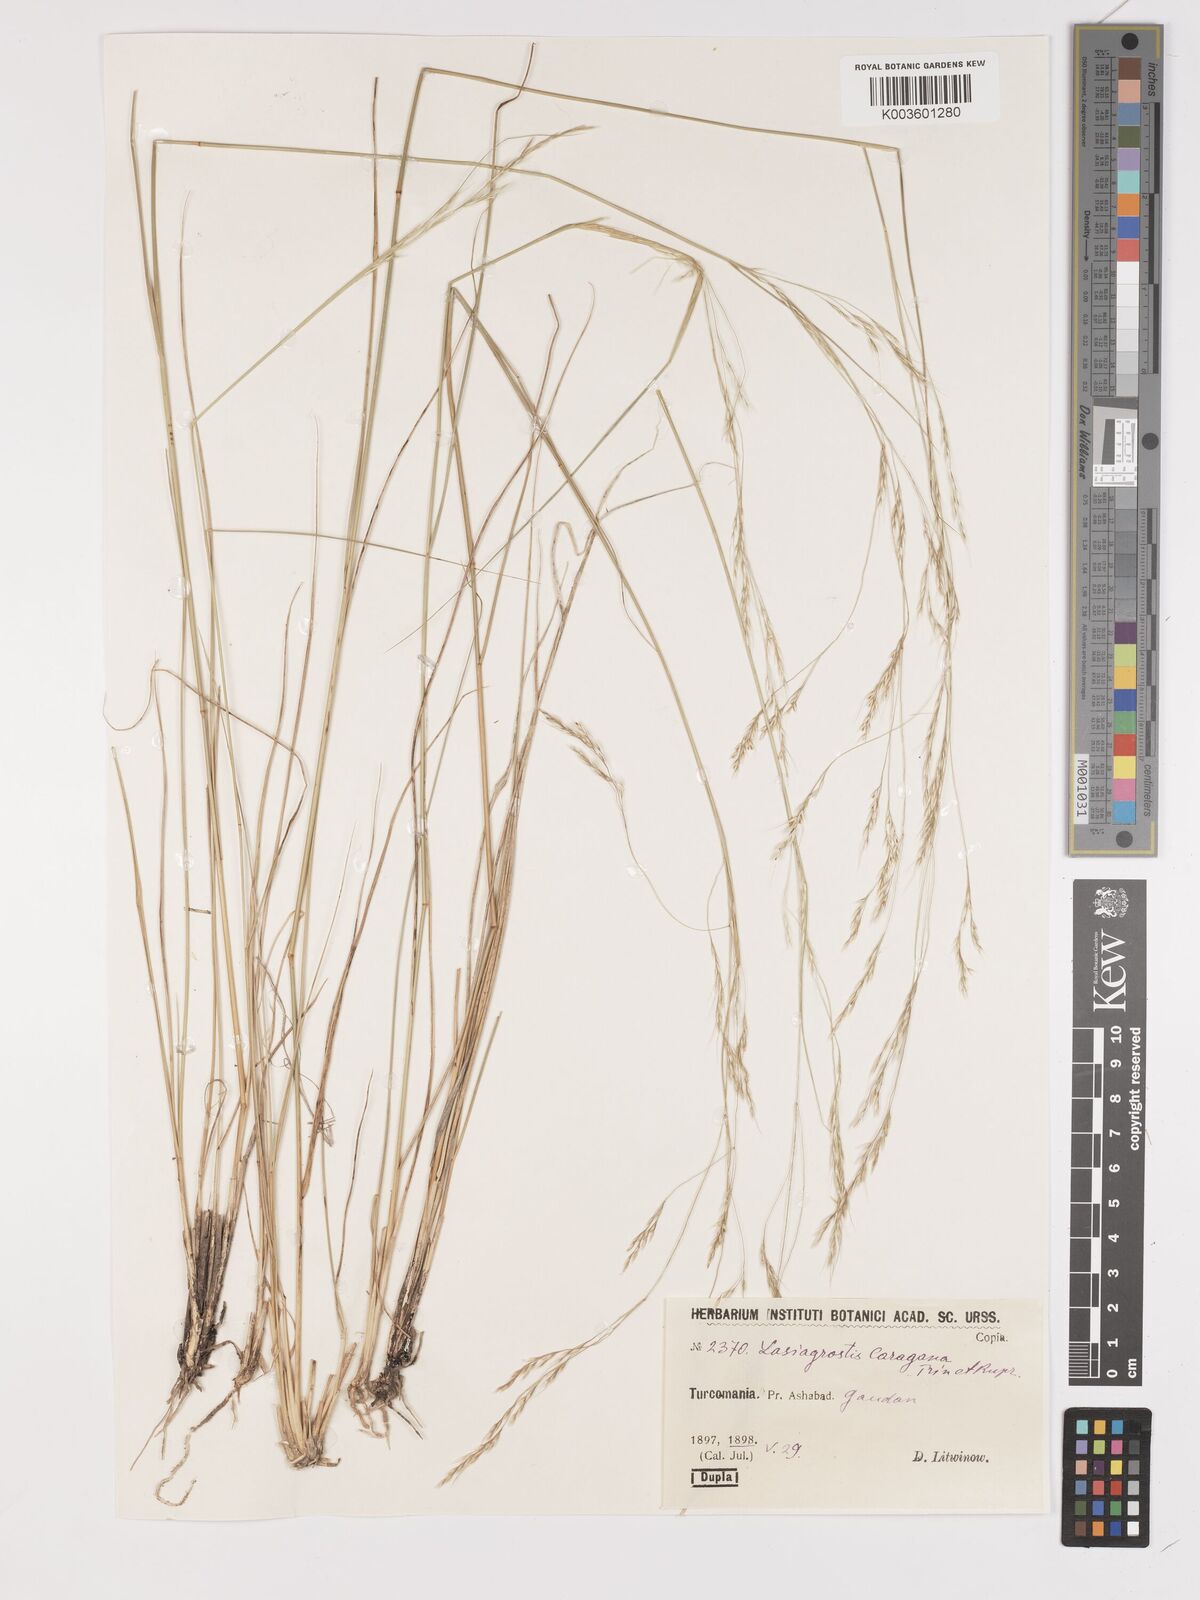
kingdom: Plantae
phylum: Tracheophyta
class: Liliopsida
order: Poales
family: Poaceae
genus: Stipa
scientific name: Stipa conferta
